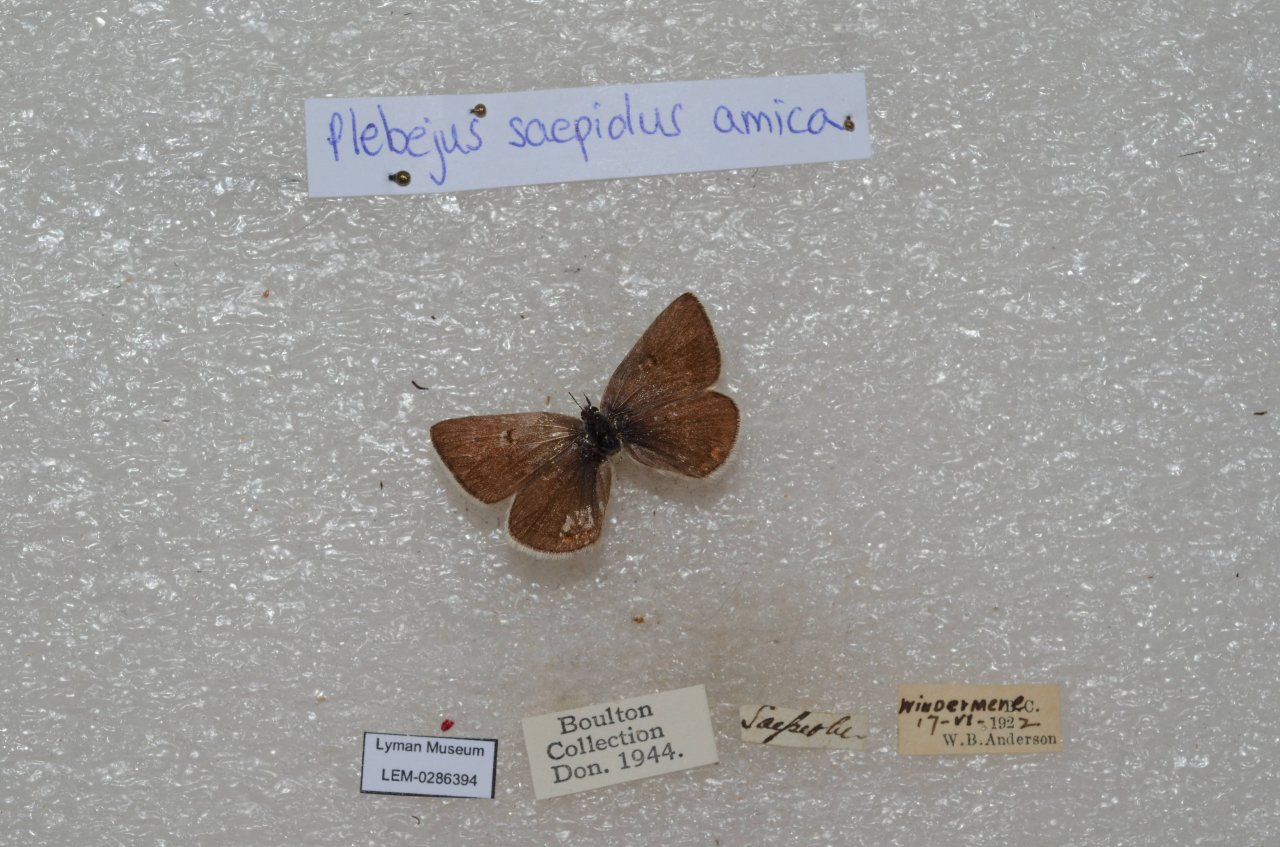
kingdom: Animalia
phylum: Arthropoda
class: Insecta
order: Lepidoptera
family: Lycaenidae
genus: Plebejus
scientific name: Plebejus saepiolus
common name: Greenish Blue
